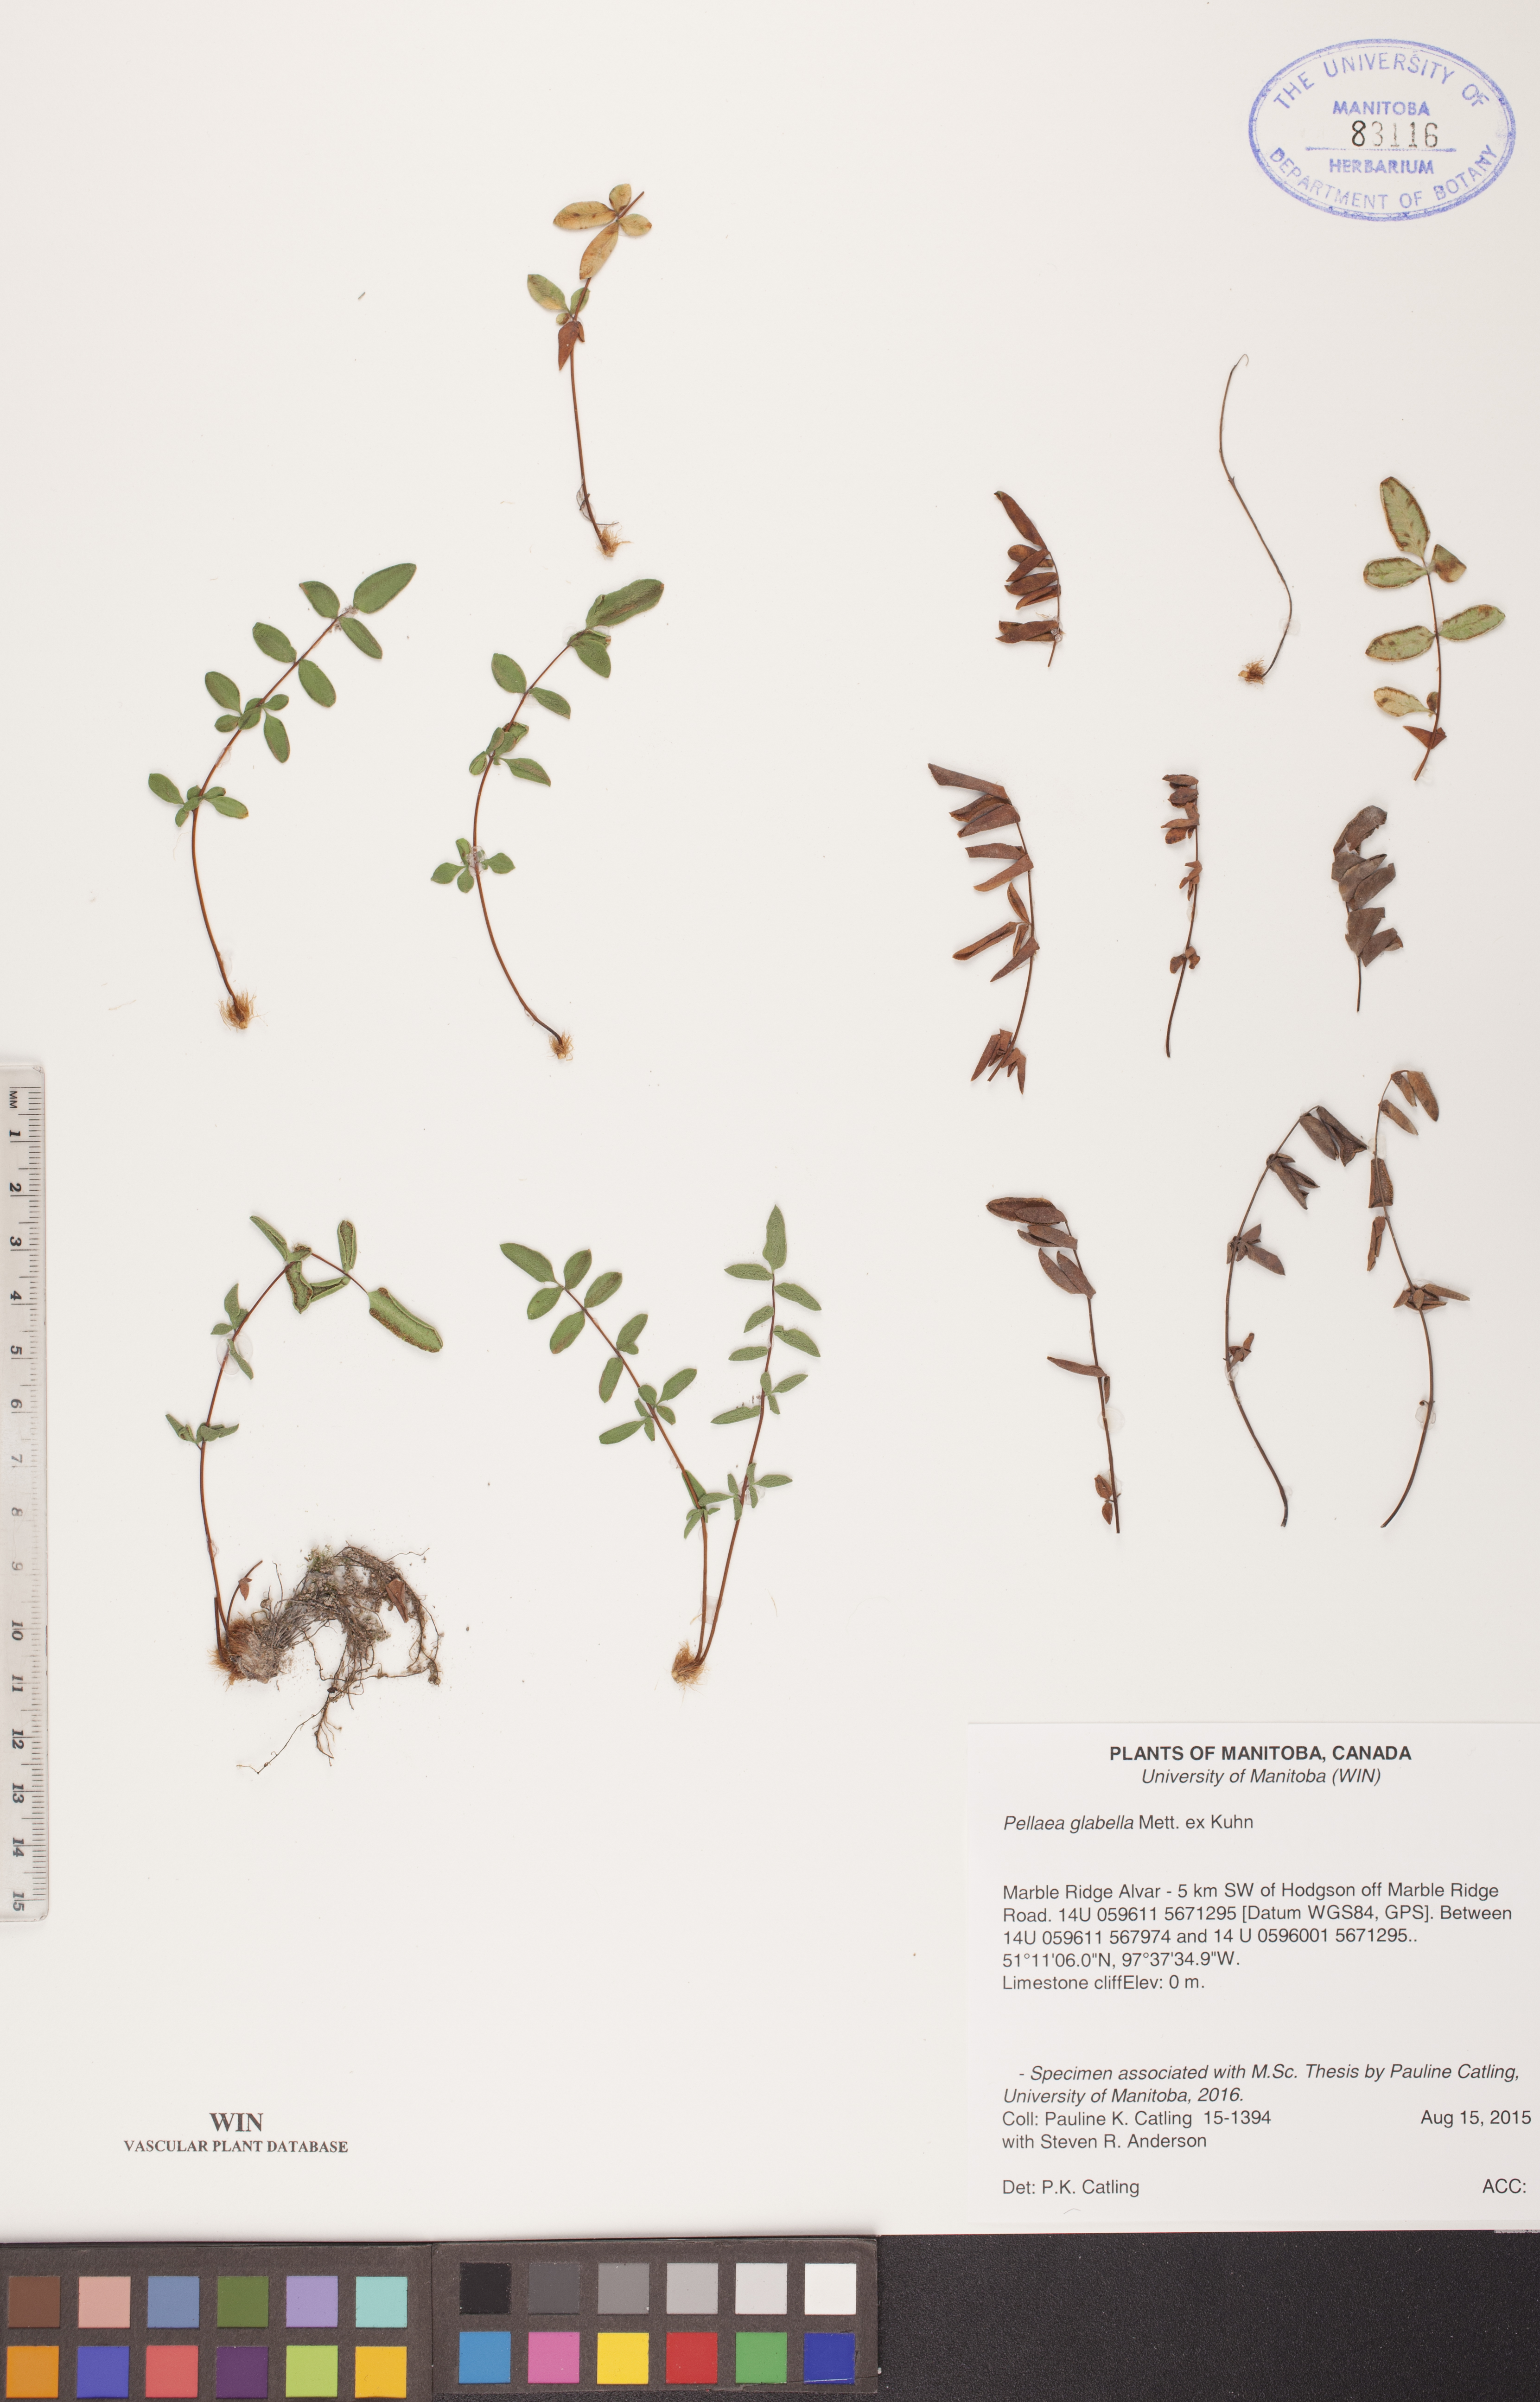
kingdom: Plantae
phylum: Tracheophyta
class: Polypodiopsida
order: Polypodiales
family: Pteridaceae
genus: Pellaea
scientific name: Pellaea glabella
